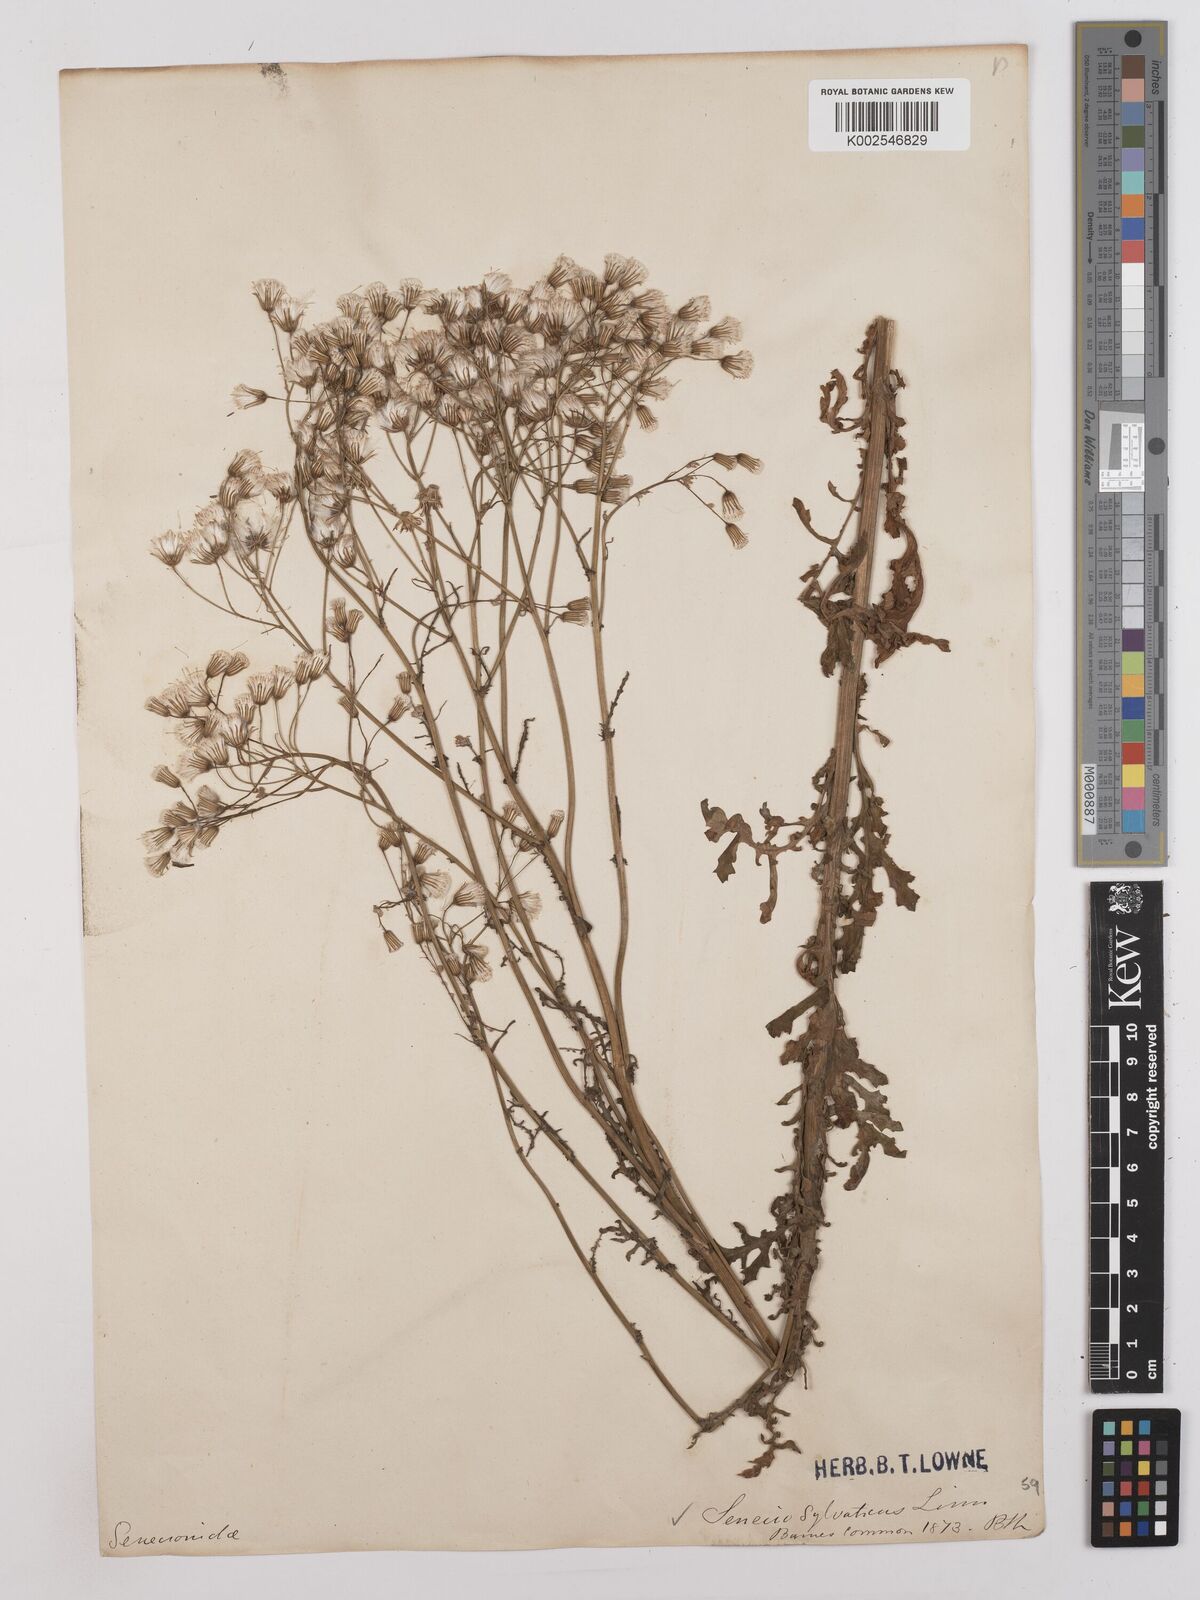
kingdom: Plantae
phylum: Tracheophyta
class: Magnoliopsida
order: Asterales
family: Asteraceae
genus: Senecio
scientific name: Senecio sylvaticus
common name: Woodland ragwort
